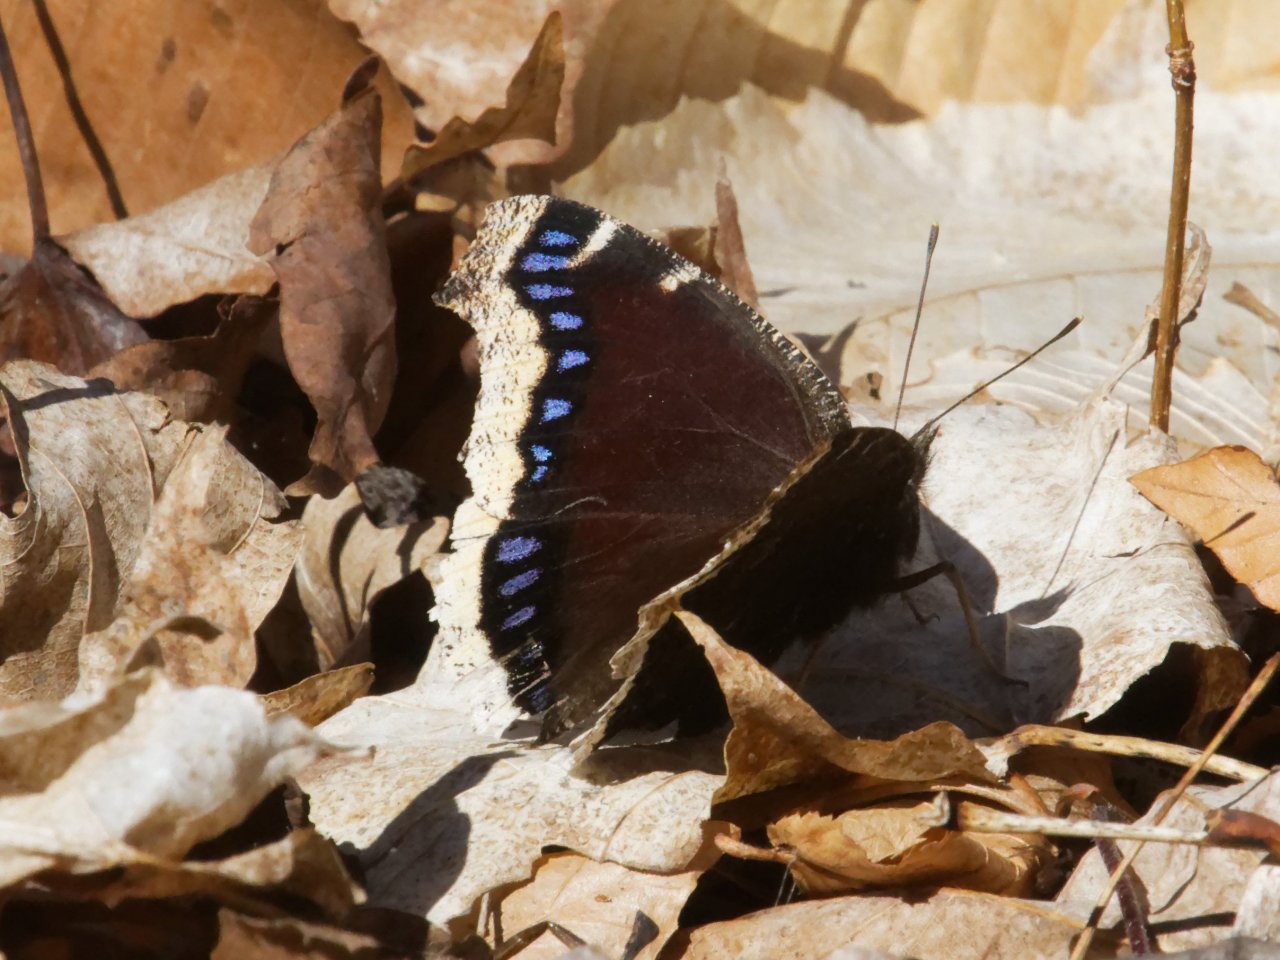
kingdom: Animalia
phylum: Arthropoda
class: Insecta
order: Lepidoptera
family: Nymphalidae
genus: Nymphalis
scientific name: Nymphalis antiopa
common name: Mourning Cloak
